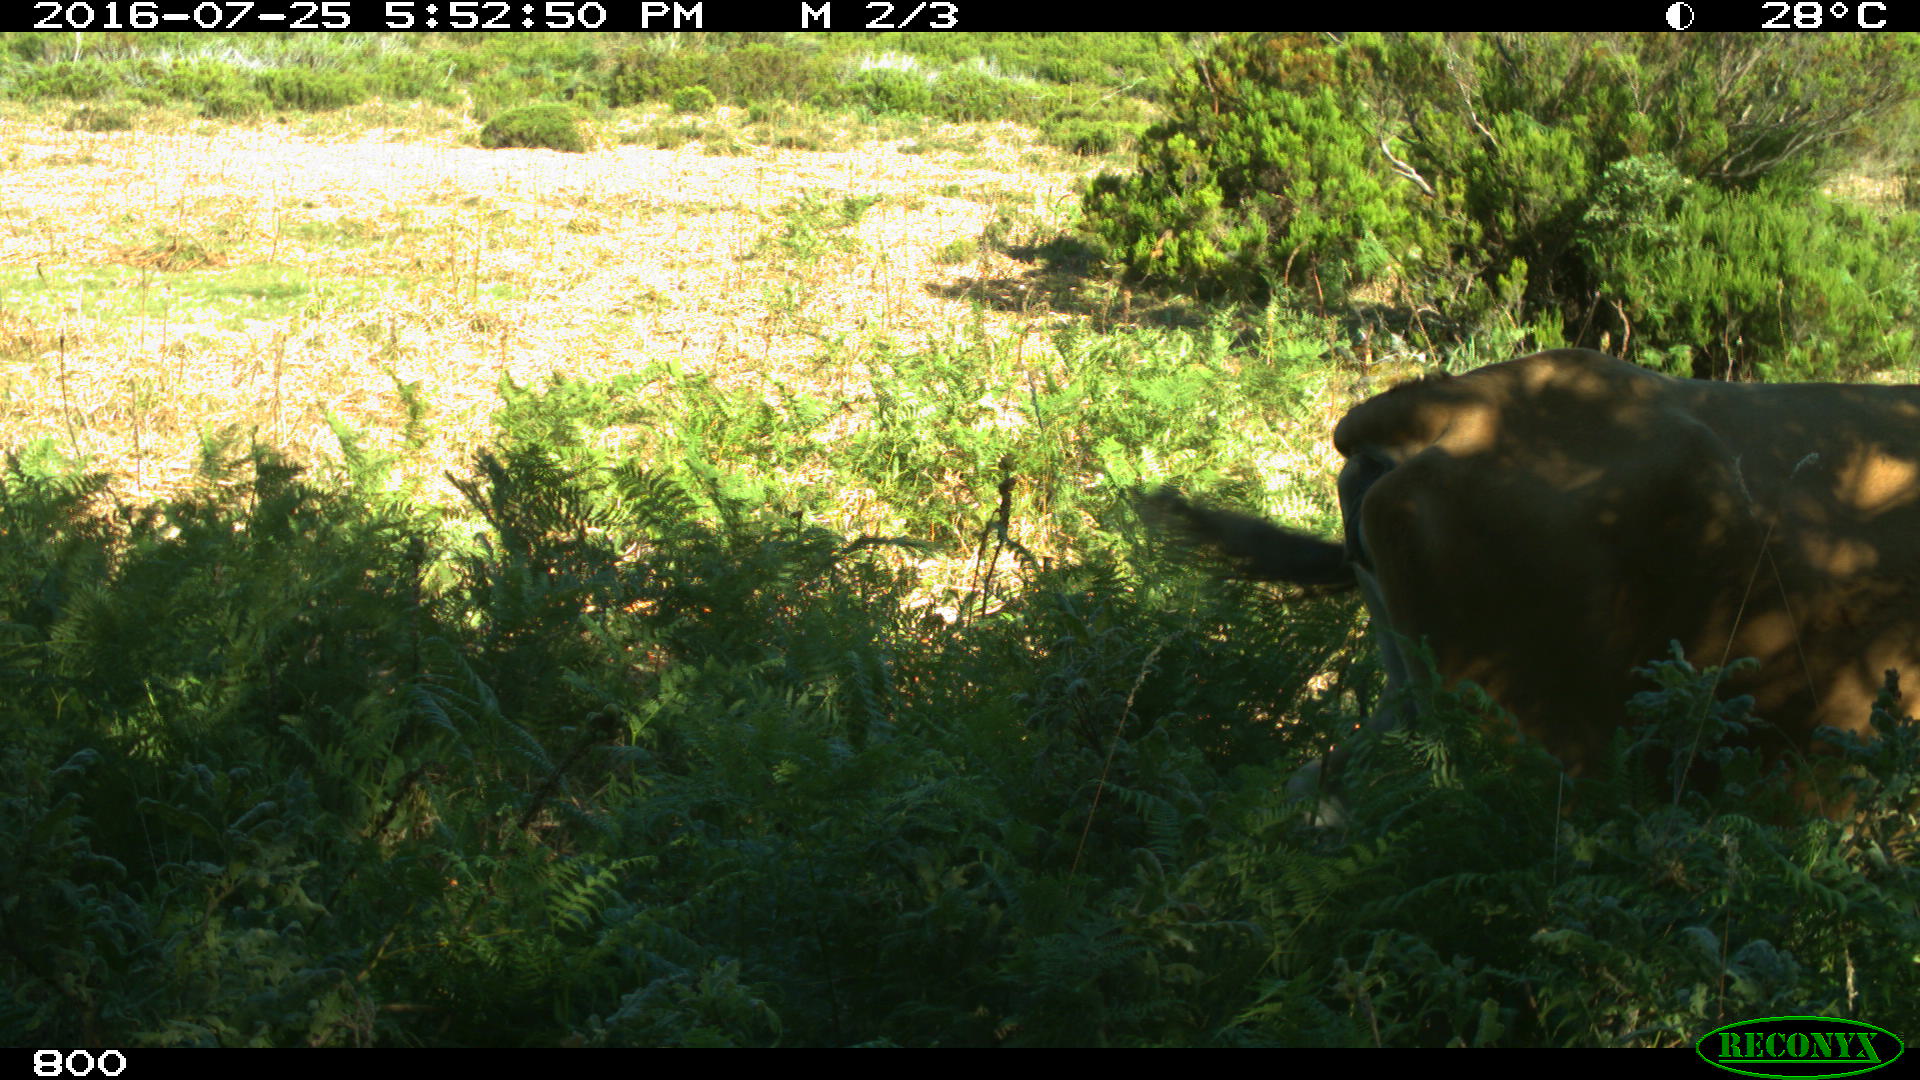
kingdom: Animalia
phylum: Chordata
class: Mammalia
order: Artiodactyla
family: Bovidae
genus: Bos
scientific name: Bos taurus
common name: Domesticated cattle
